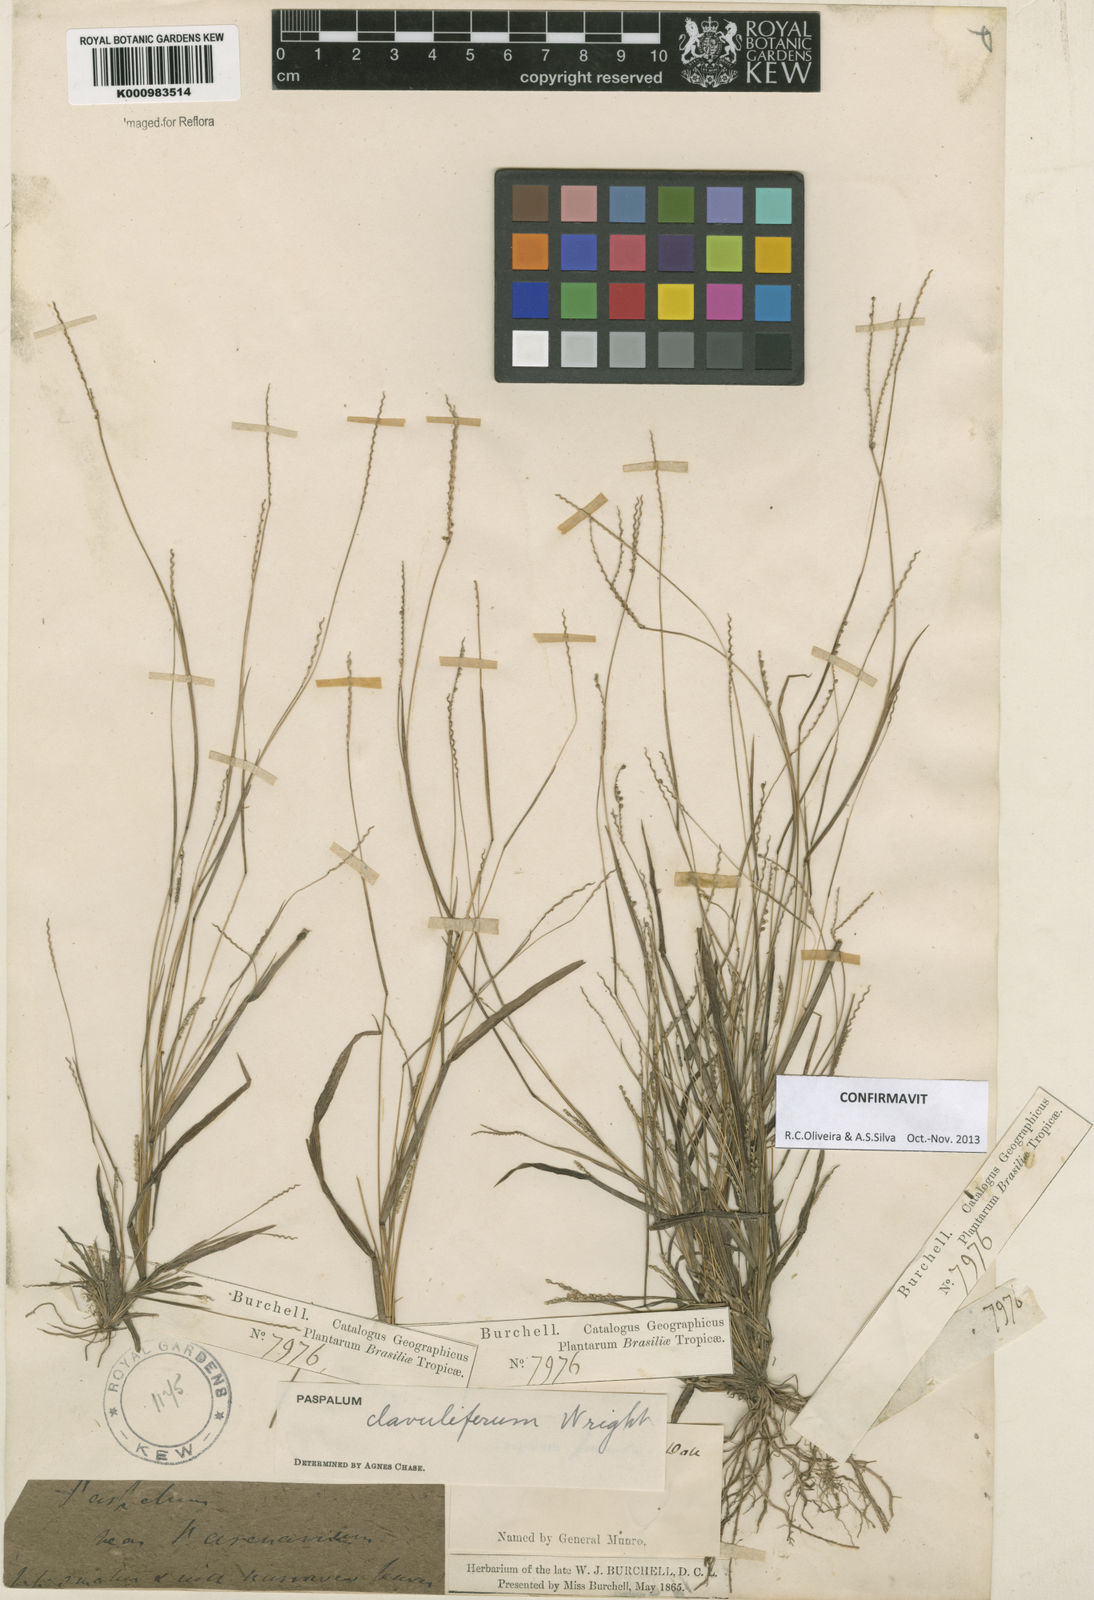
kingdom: Plantae
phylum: Tracheophyta
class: Liliopsida
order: Poales
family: Poaceae
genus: Paspalum
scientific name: Paspalum clavuliferum
